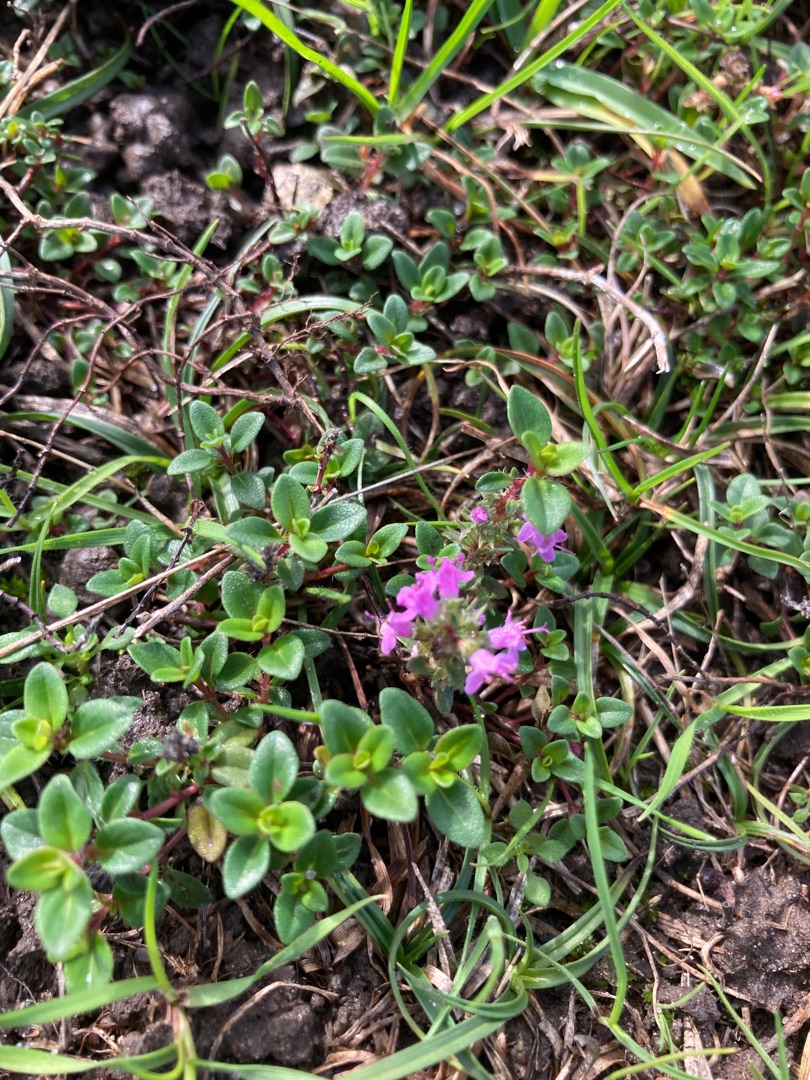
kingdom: Plantae
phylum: Tracheophyta
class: Magnoliopsida
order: Lamiales
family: Lamiaceae
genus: Thymus
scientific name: Thymus pulegioides
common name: Bredbladet timian
